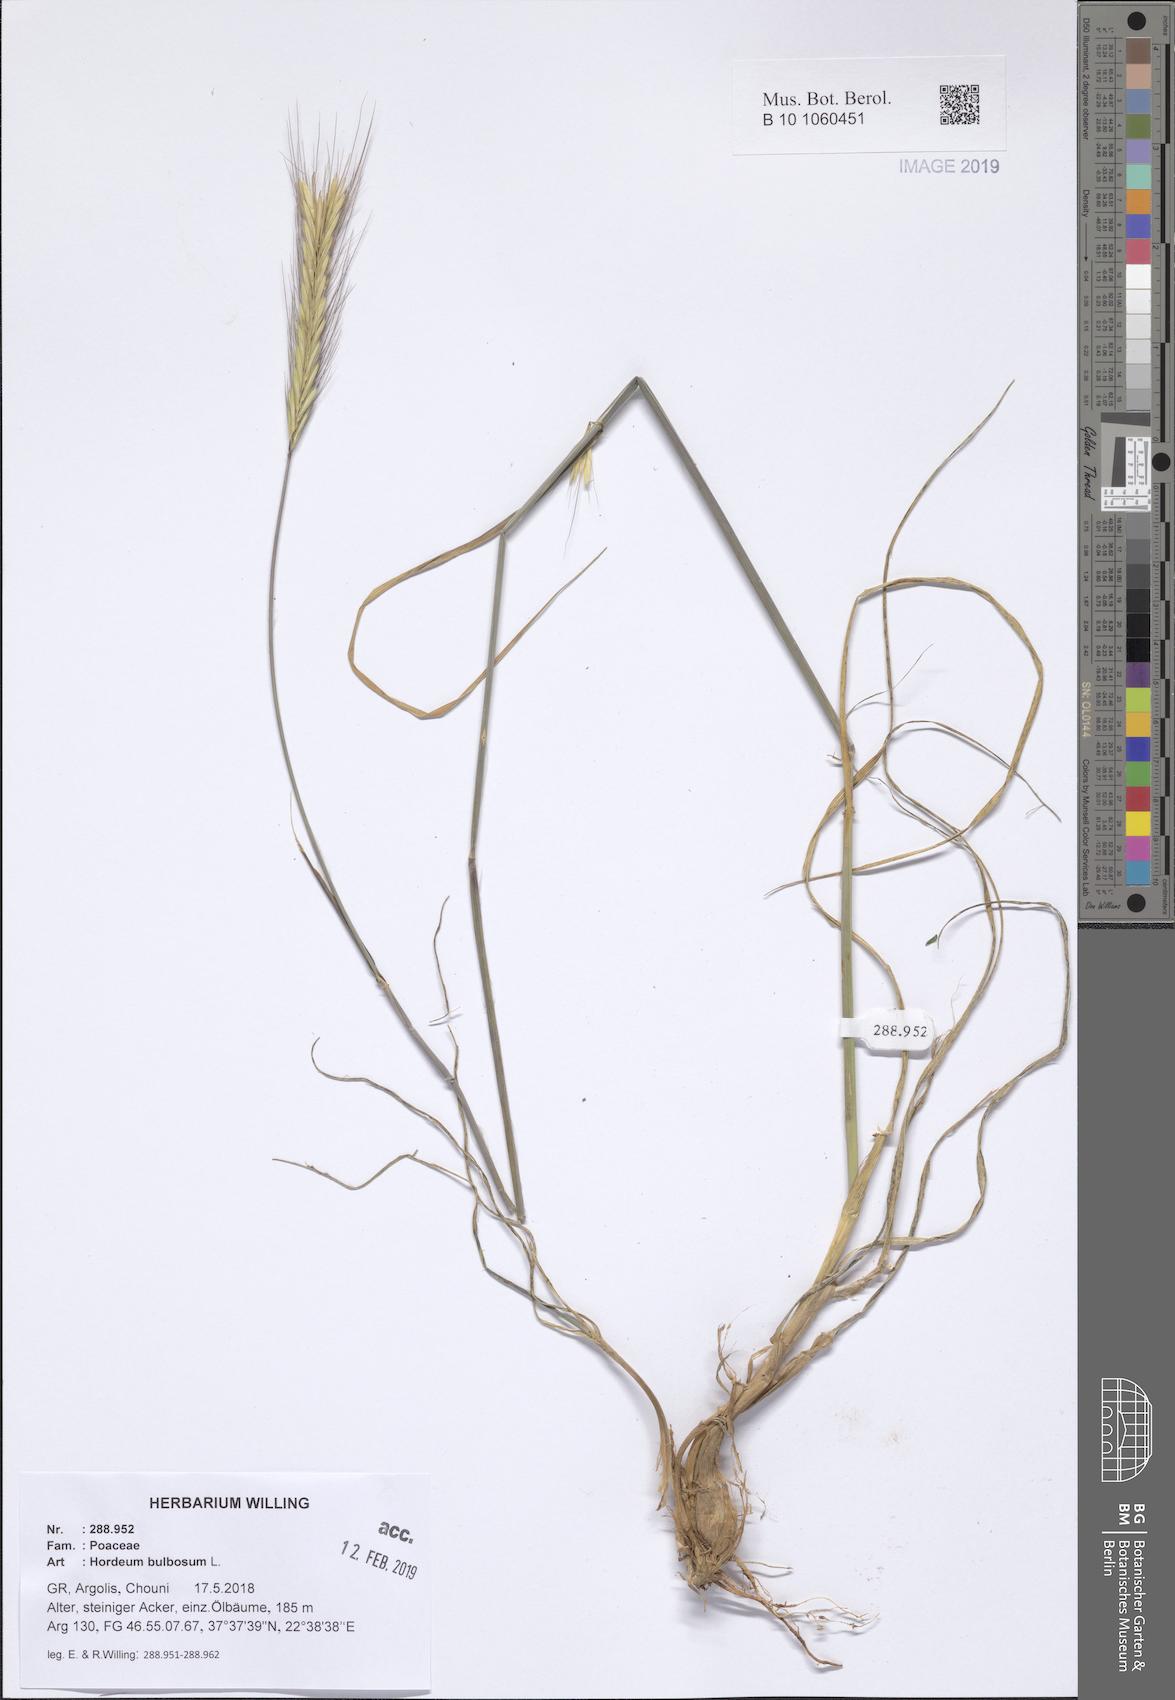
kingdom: Plantae
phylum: Tracheophyta
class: Liliopsida
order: Poales
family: Poaceae
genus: Hordeum
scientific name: Hordeum bulbosum
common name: Bulbous barley
